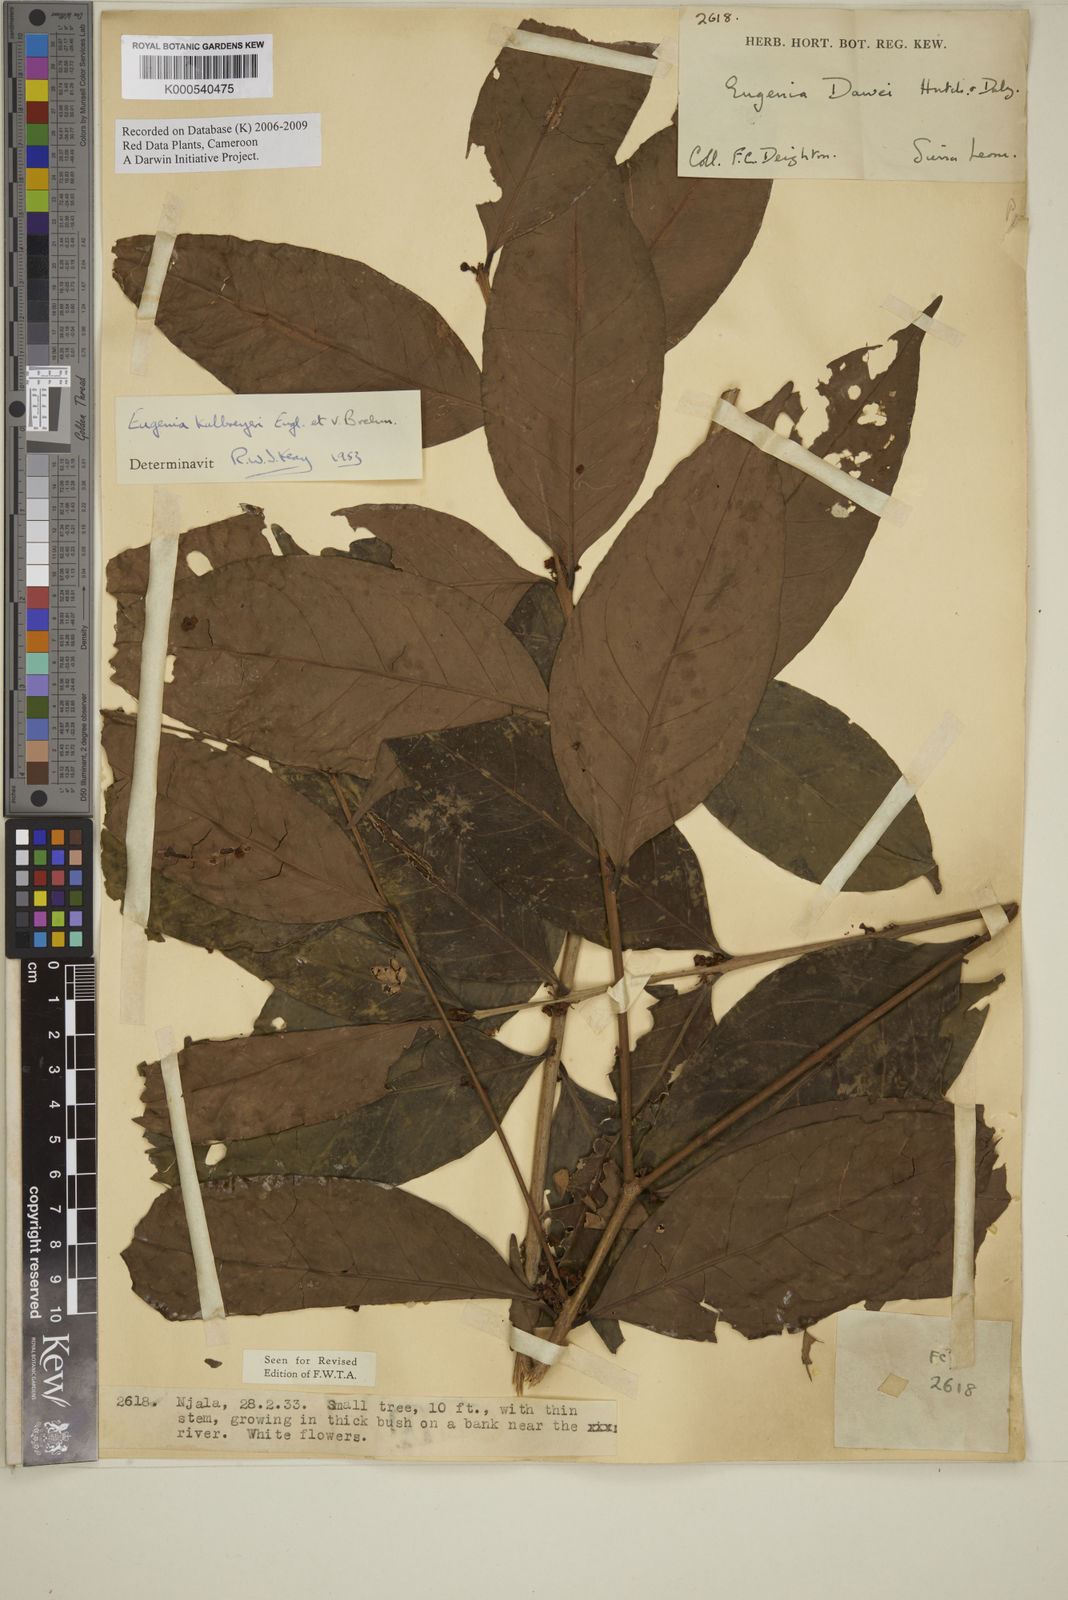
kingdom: Plantae
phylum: Tracheophyta
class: Magnoliopsida
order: Myrtales
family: Myrtaceae
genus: Eugenia
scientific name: Eugenia kalbreyeri
